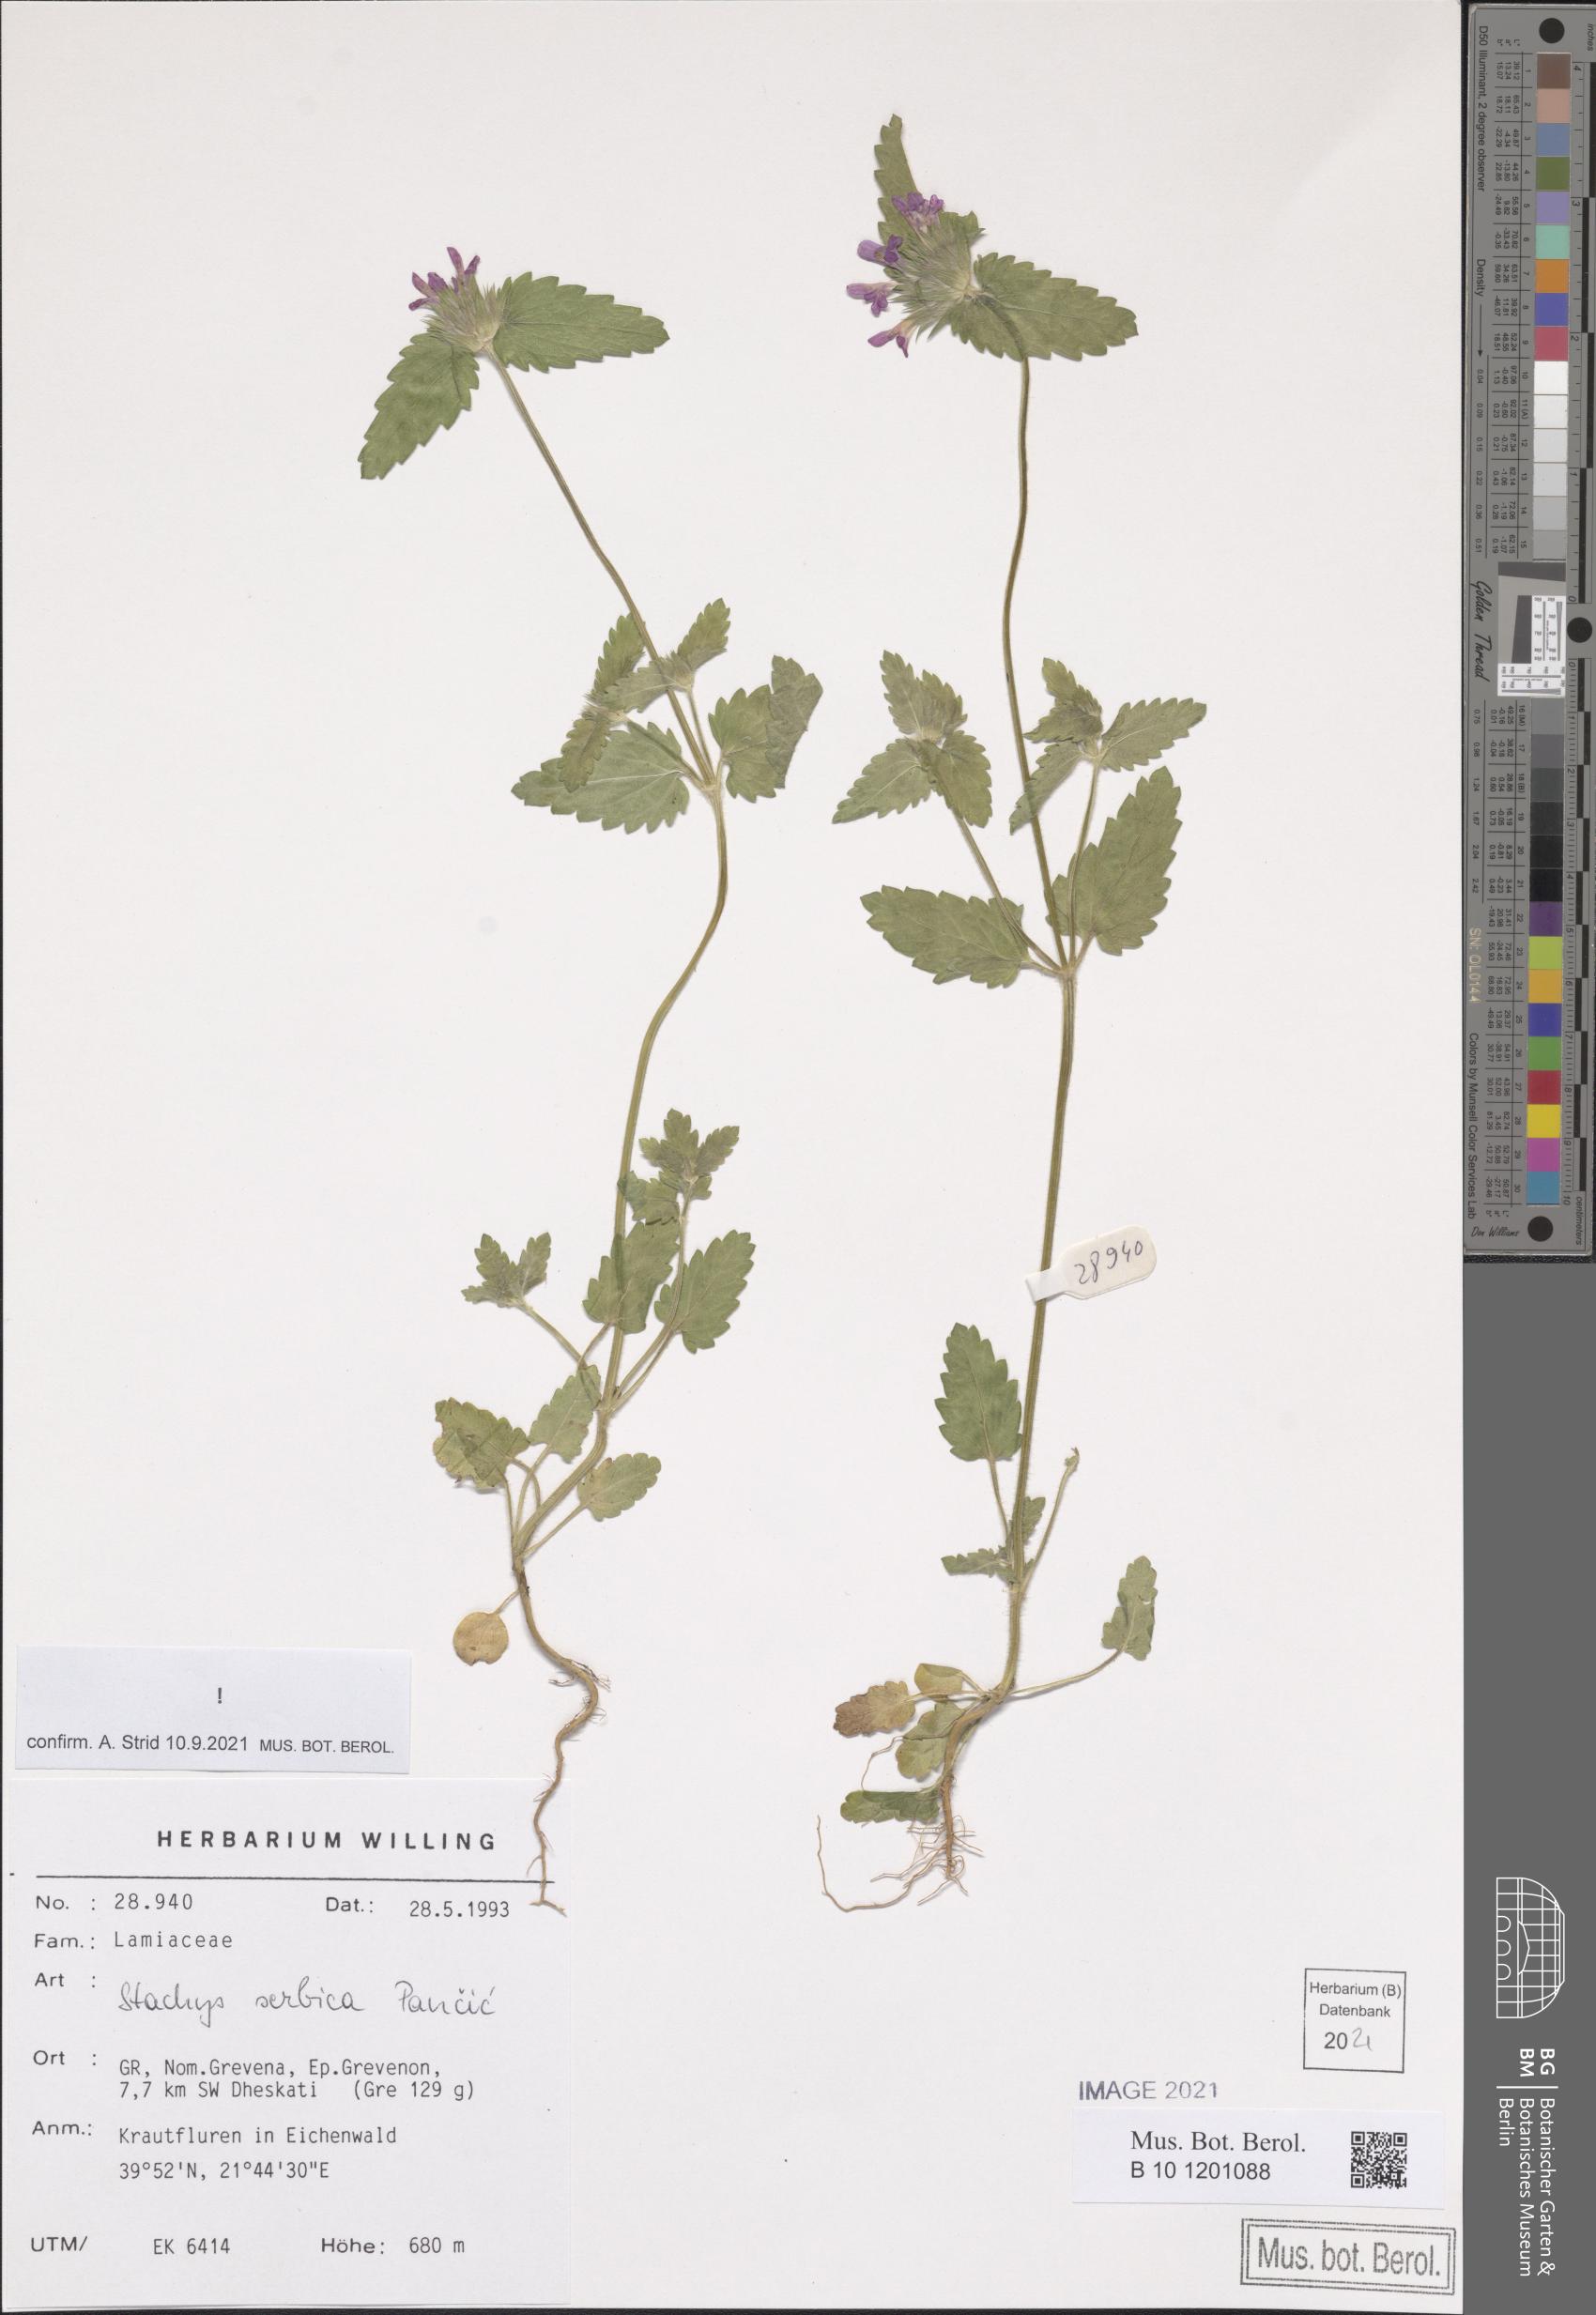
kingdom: Plantae
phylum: Tracheophyta
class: Magnoliopsida
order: Lamiales
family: Lamiaceae
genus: Stachys
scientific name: Stachys serbica
